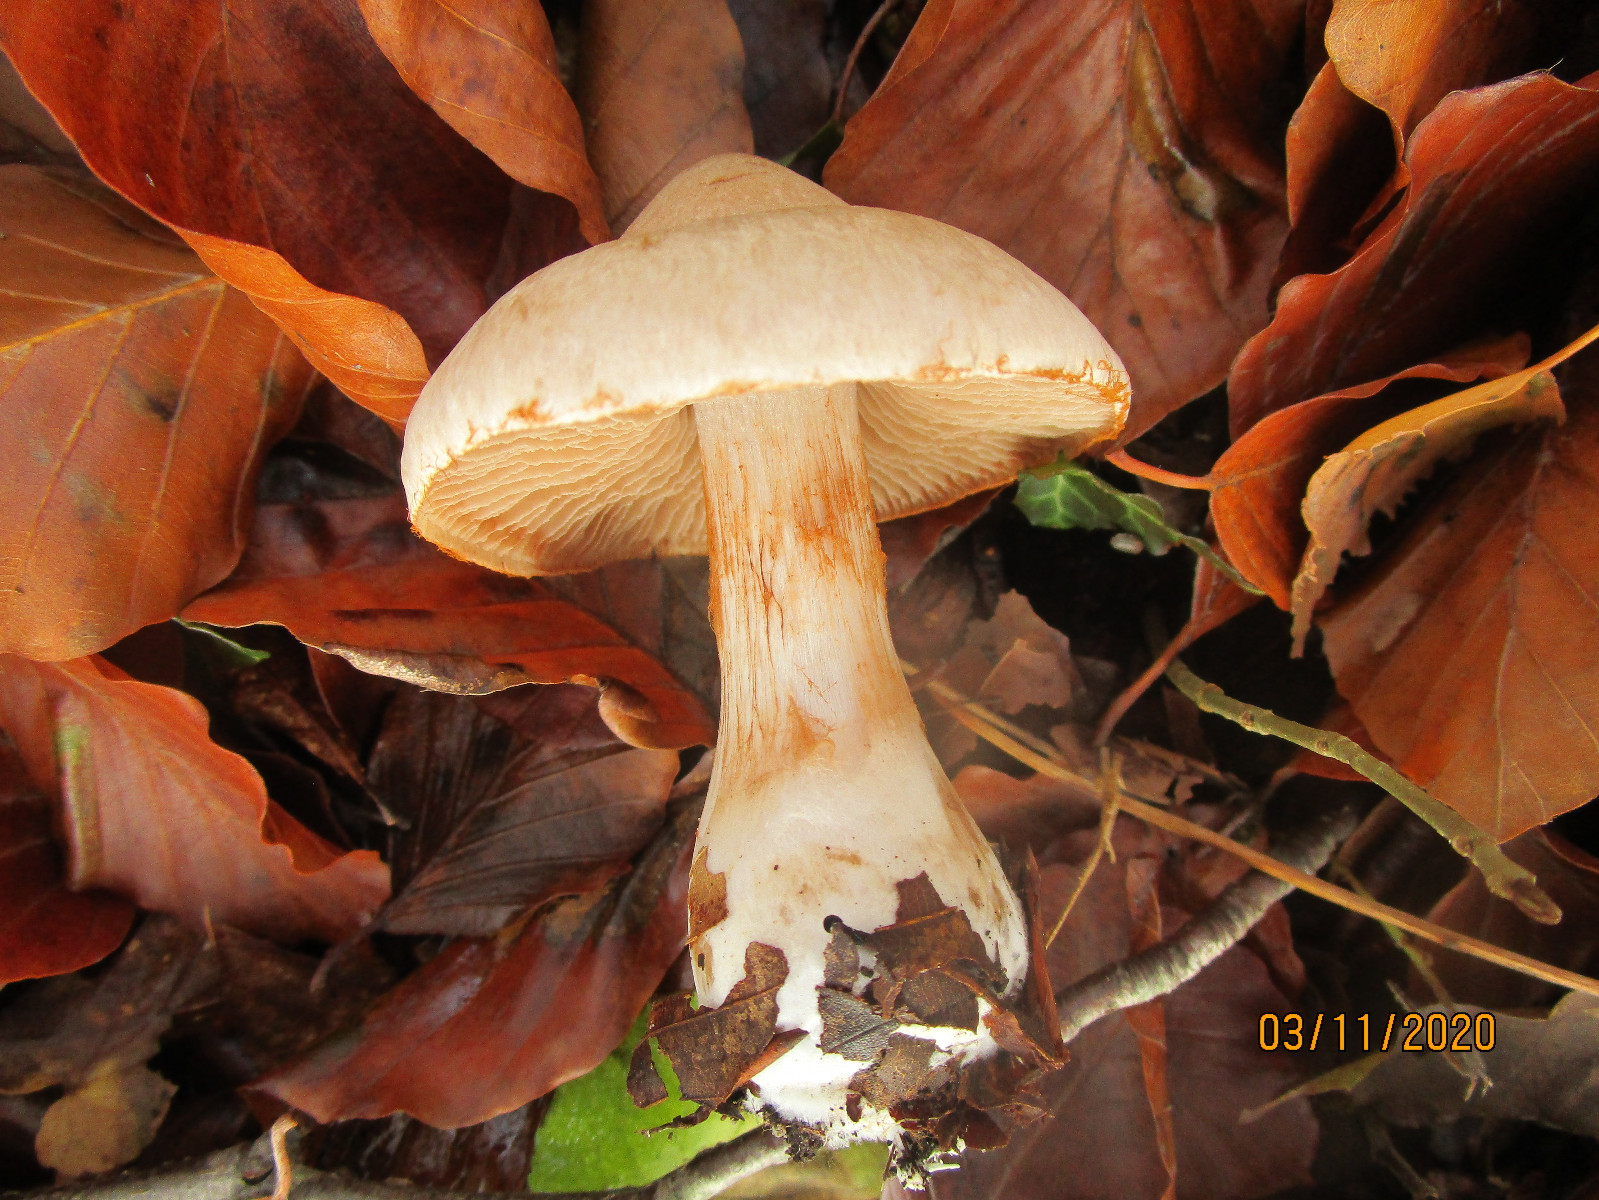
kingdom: Fungi
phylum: Basidiomycota
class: Agaricomycetes
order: Agaricales
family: Cortinariaceae
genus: Cortinarius
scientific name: Cortinarius urbicus
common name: sølv-slørhat
